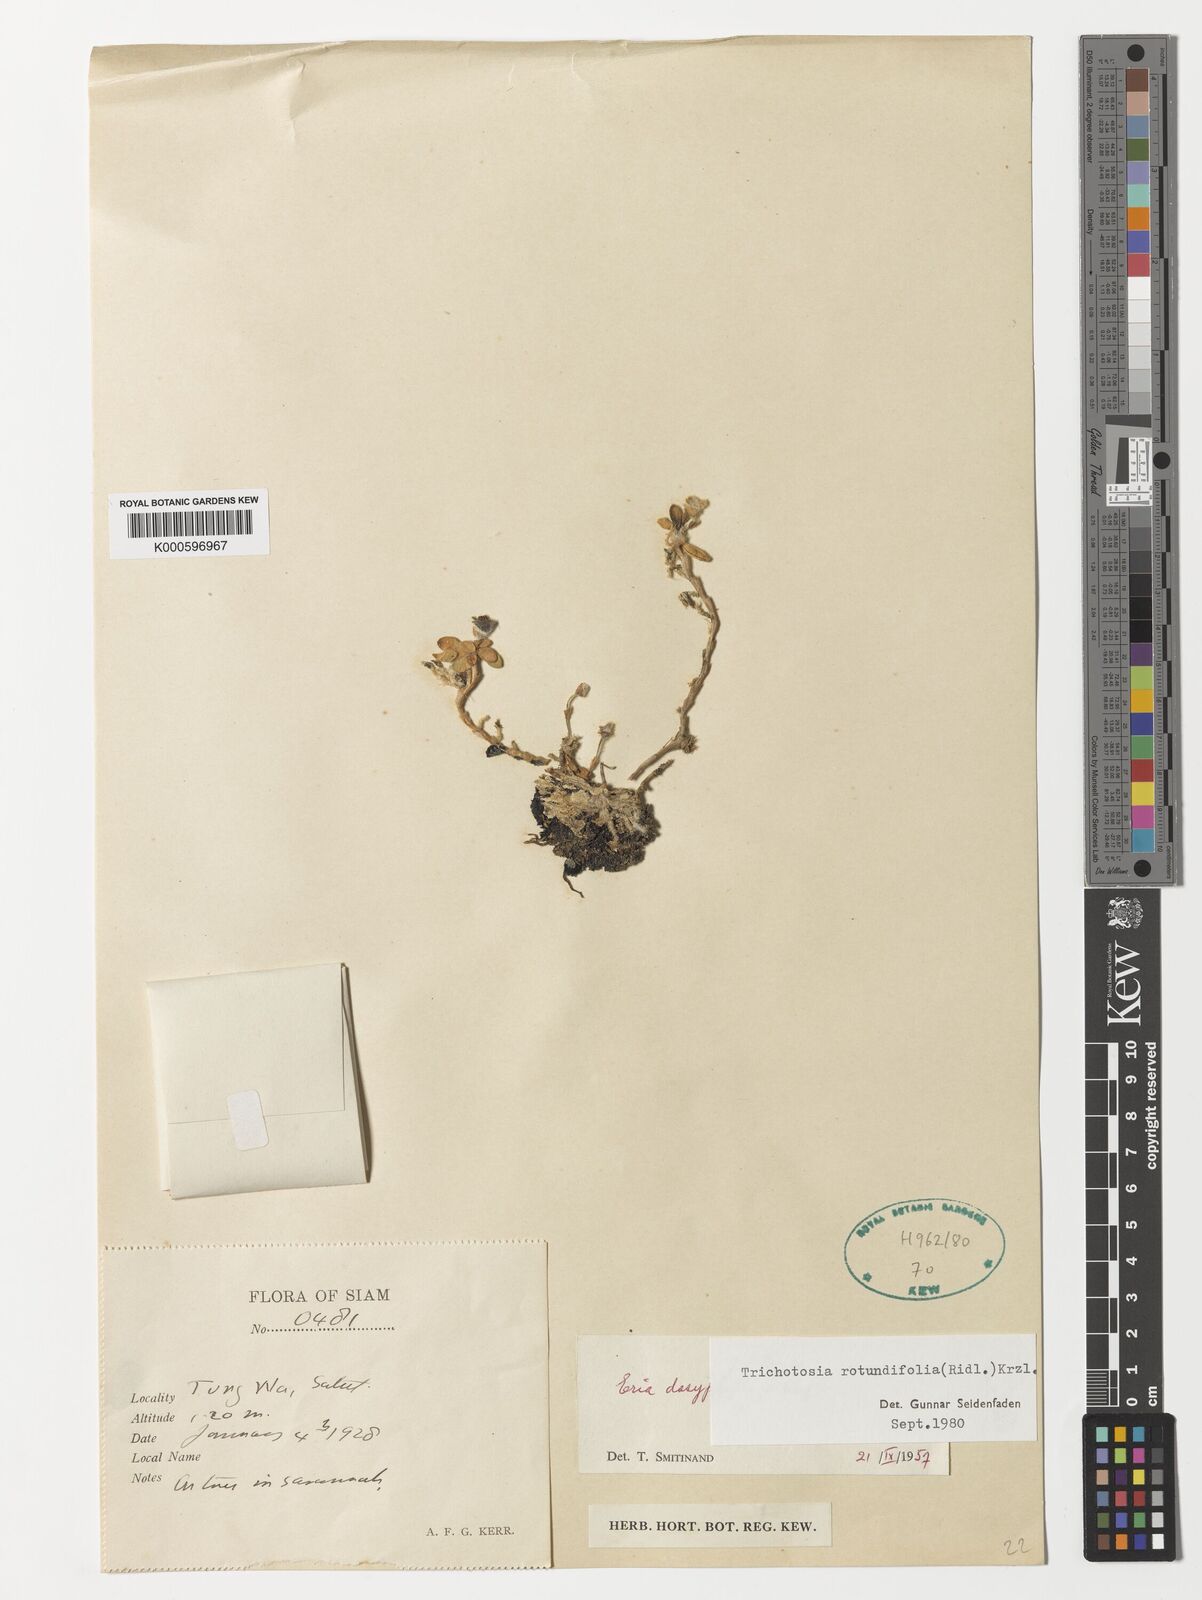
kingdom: Plantae
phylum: Tracheophyta
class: Liliopsida
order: Asparagales
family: Orchidaceae
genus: Trichotosia
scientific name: Trichotosia rotundifolia
